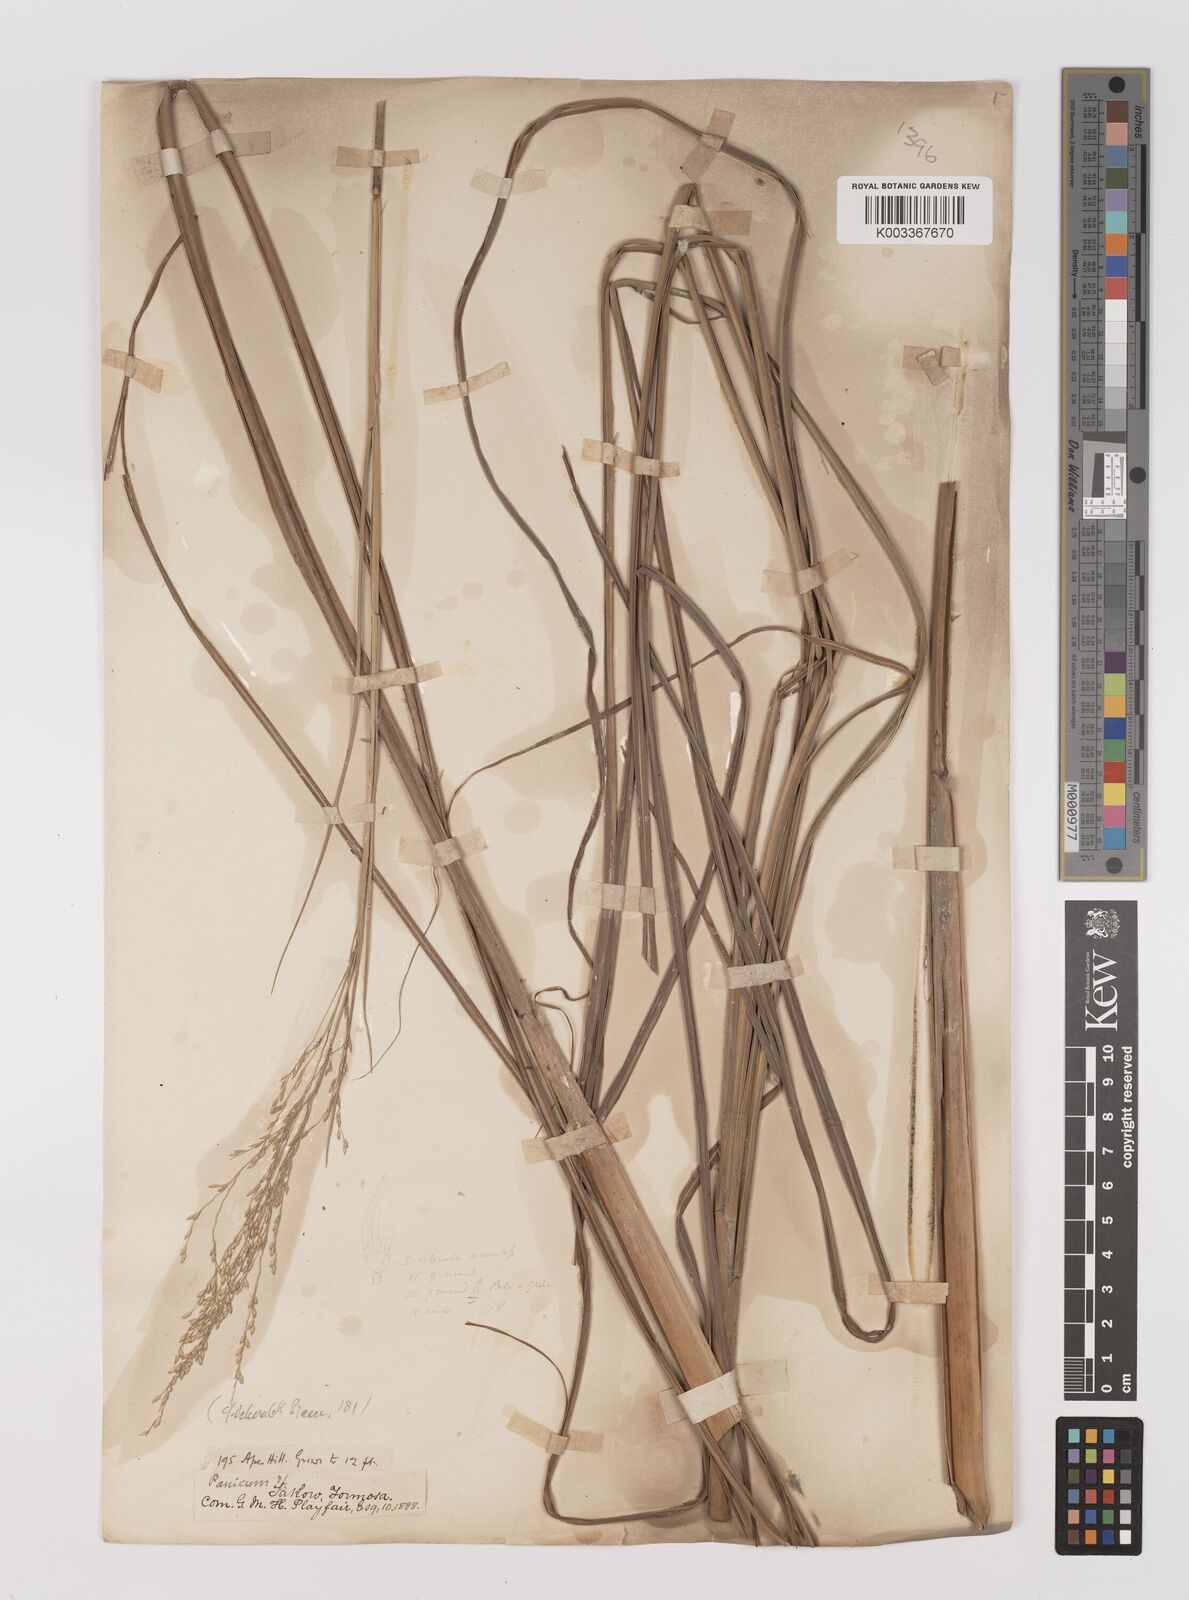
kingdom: Plantae
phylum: Tracheophyta
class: Liliopsida
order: Poales
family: Poaceae
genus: Panicum
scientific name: Panicum repens
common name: Torpedo grass
